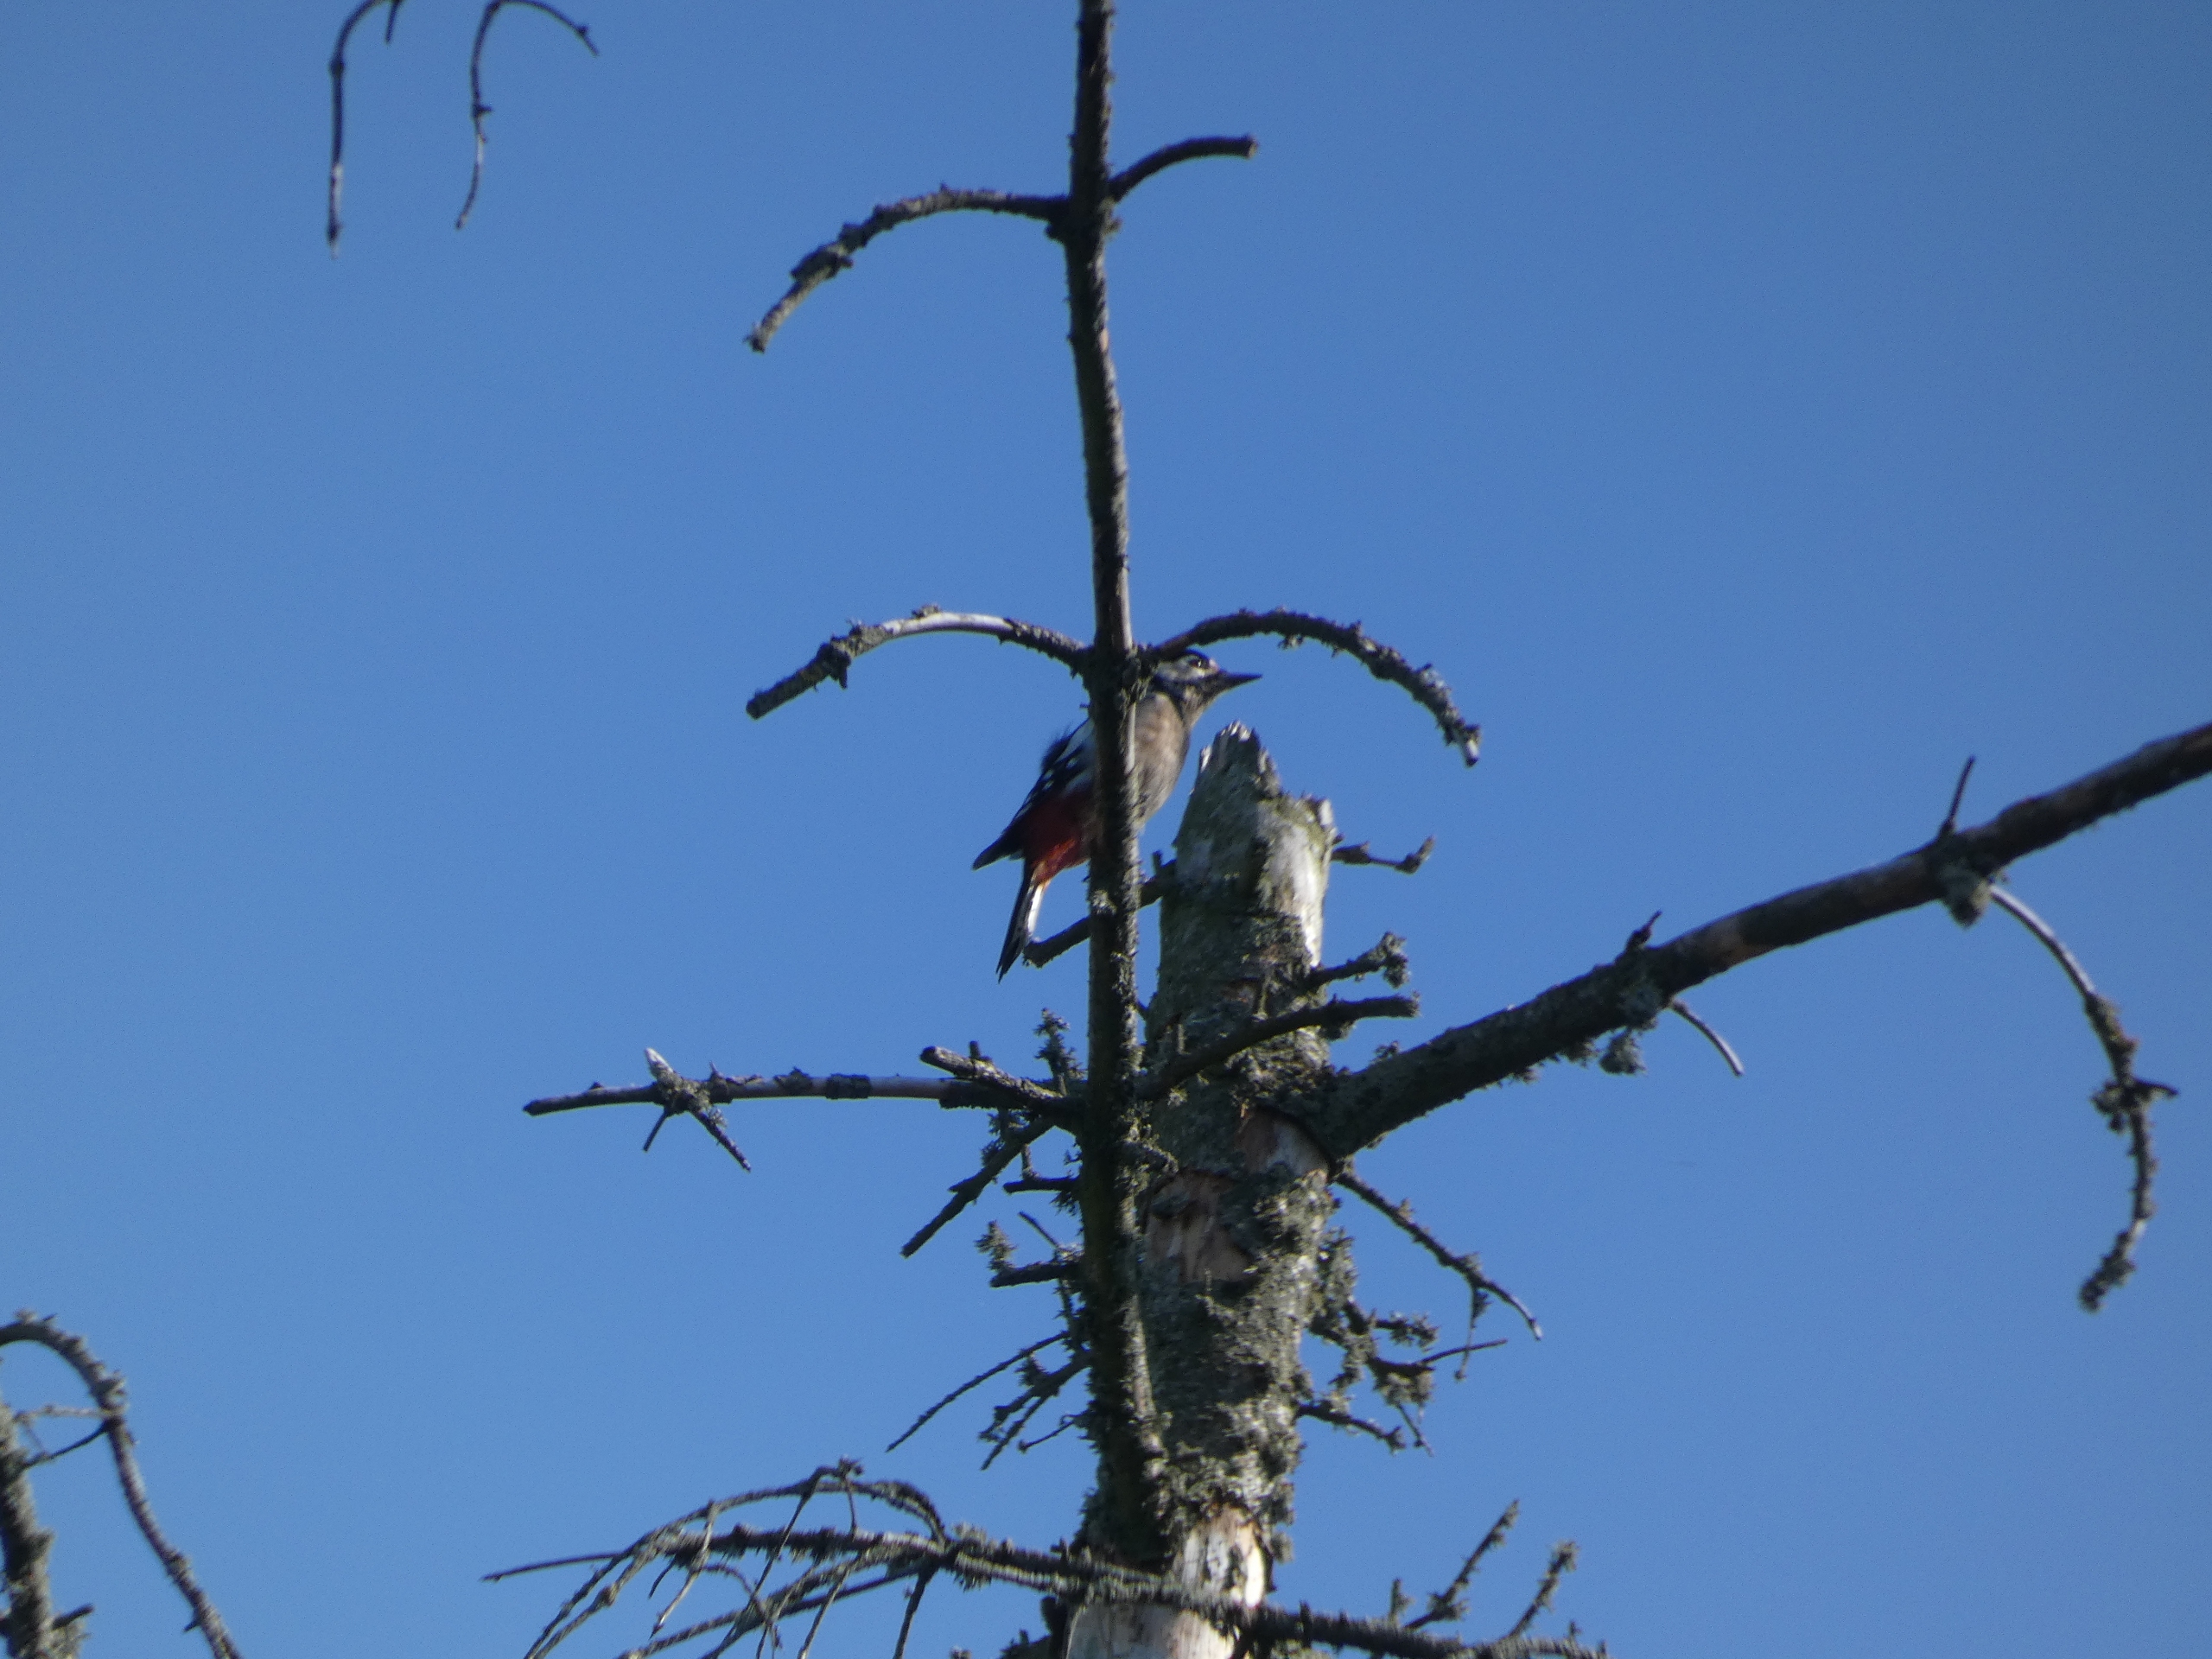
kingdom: Animalia
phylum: Chordata
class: Aves
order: Piciformes
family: Picidae
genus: Dendrocopos
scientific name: Dendrocopos major
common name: Stor flagspætte
